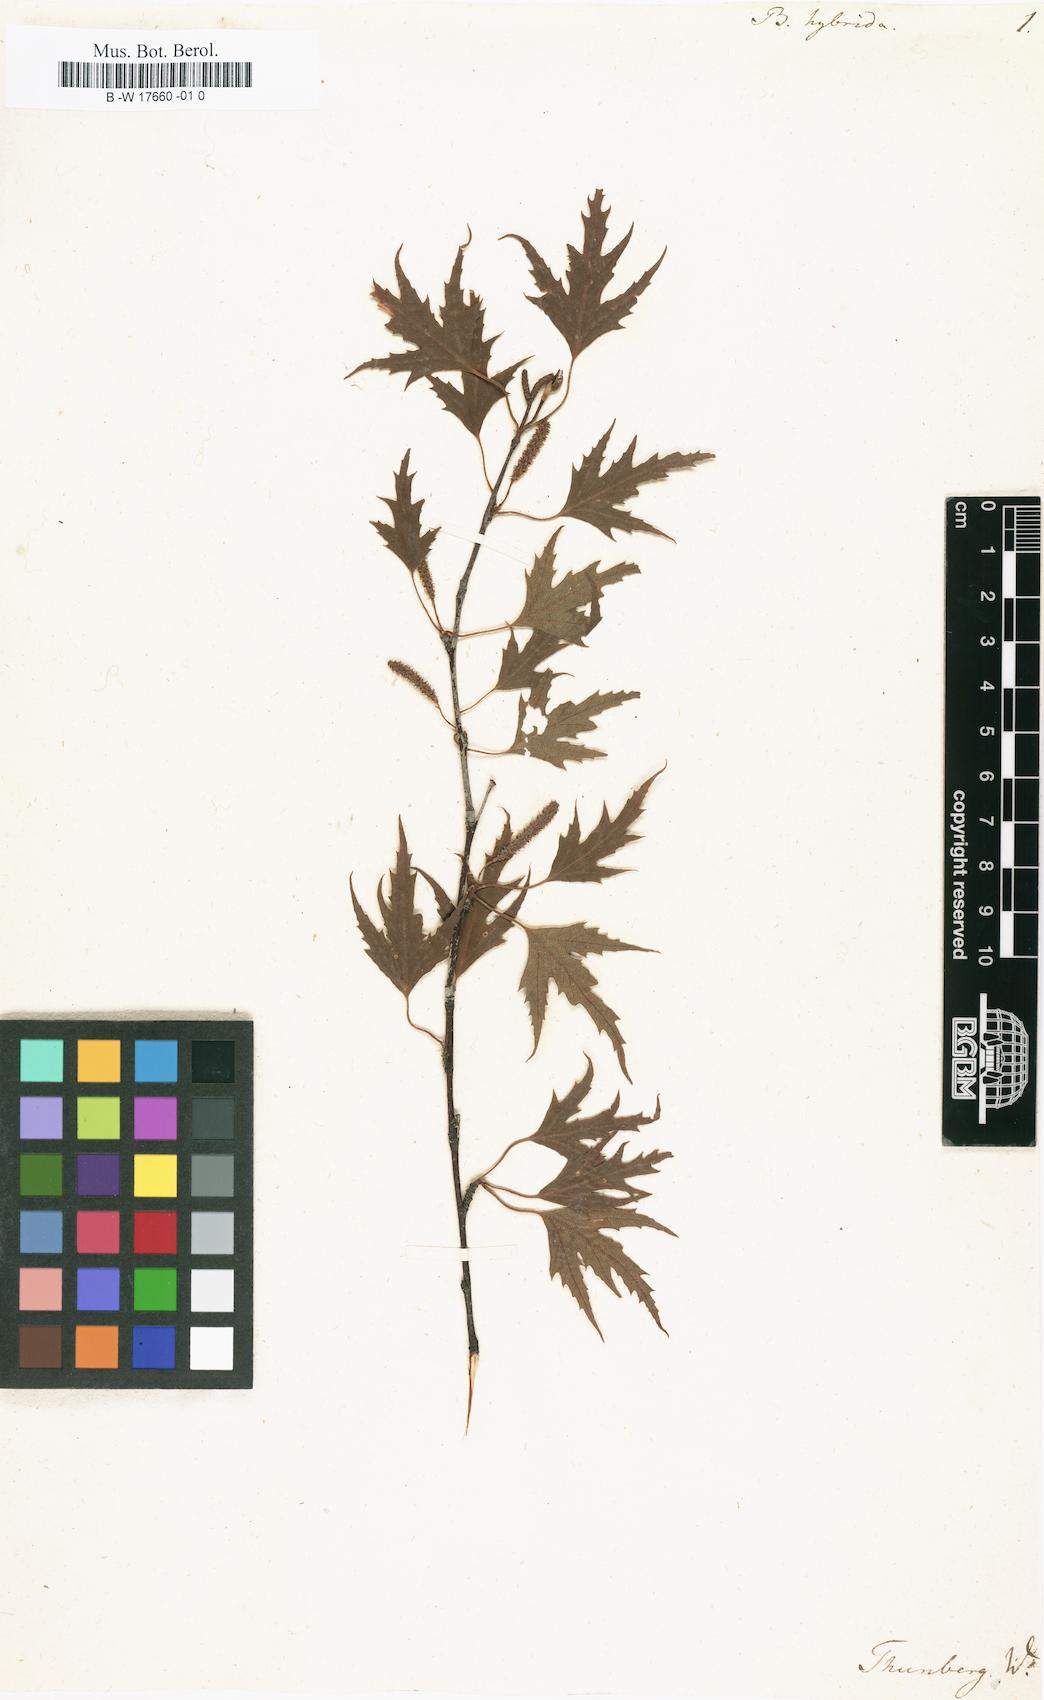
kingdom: Plantae
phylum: Tracheophyta
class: Magnoliopsida
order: Fagales
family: Betulaceae
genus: Betula
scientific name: Betula pendula
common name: Silver birch
